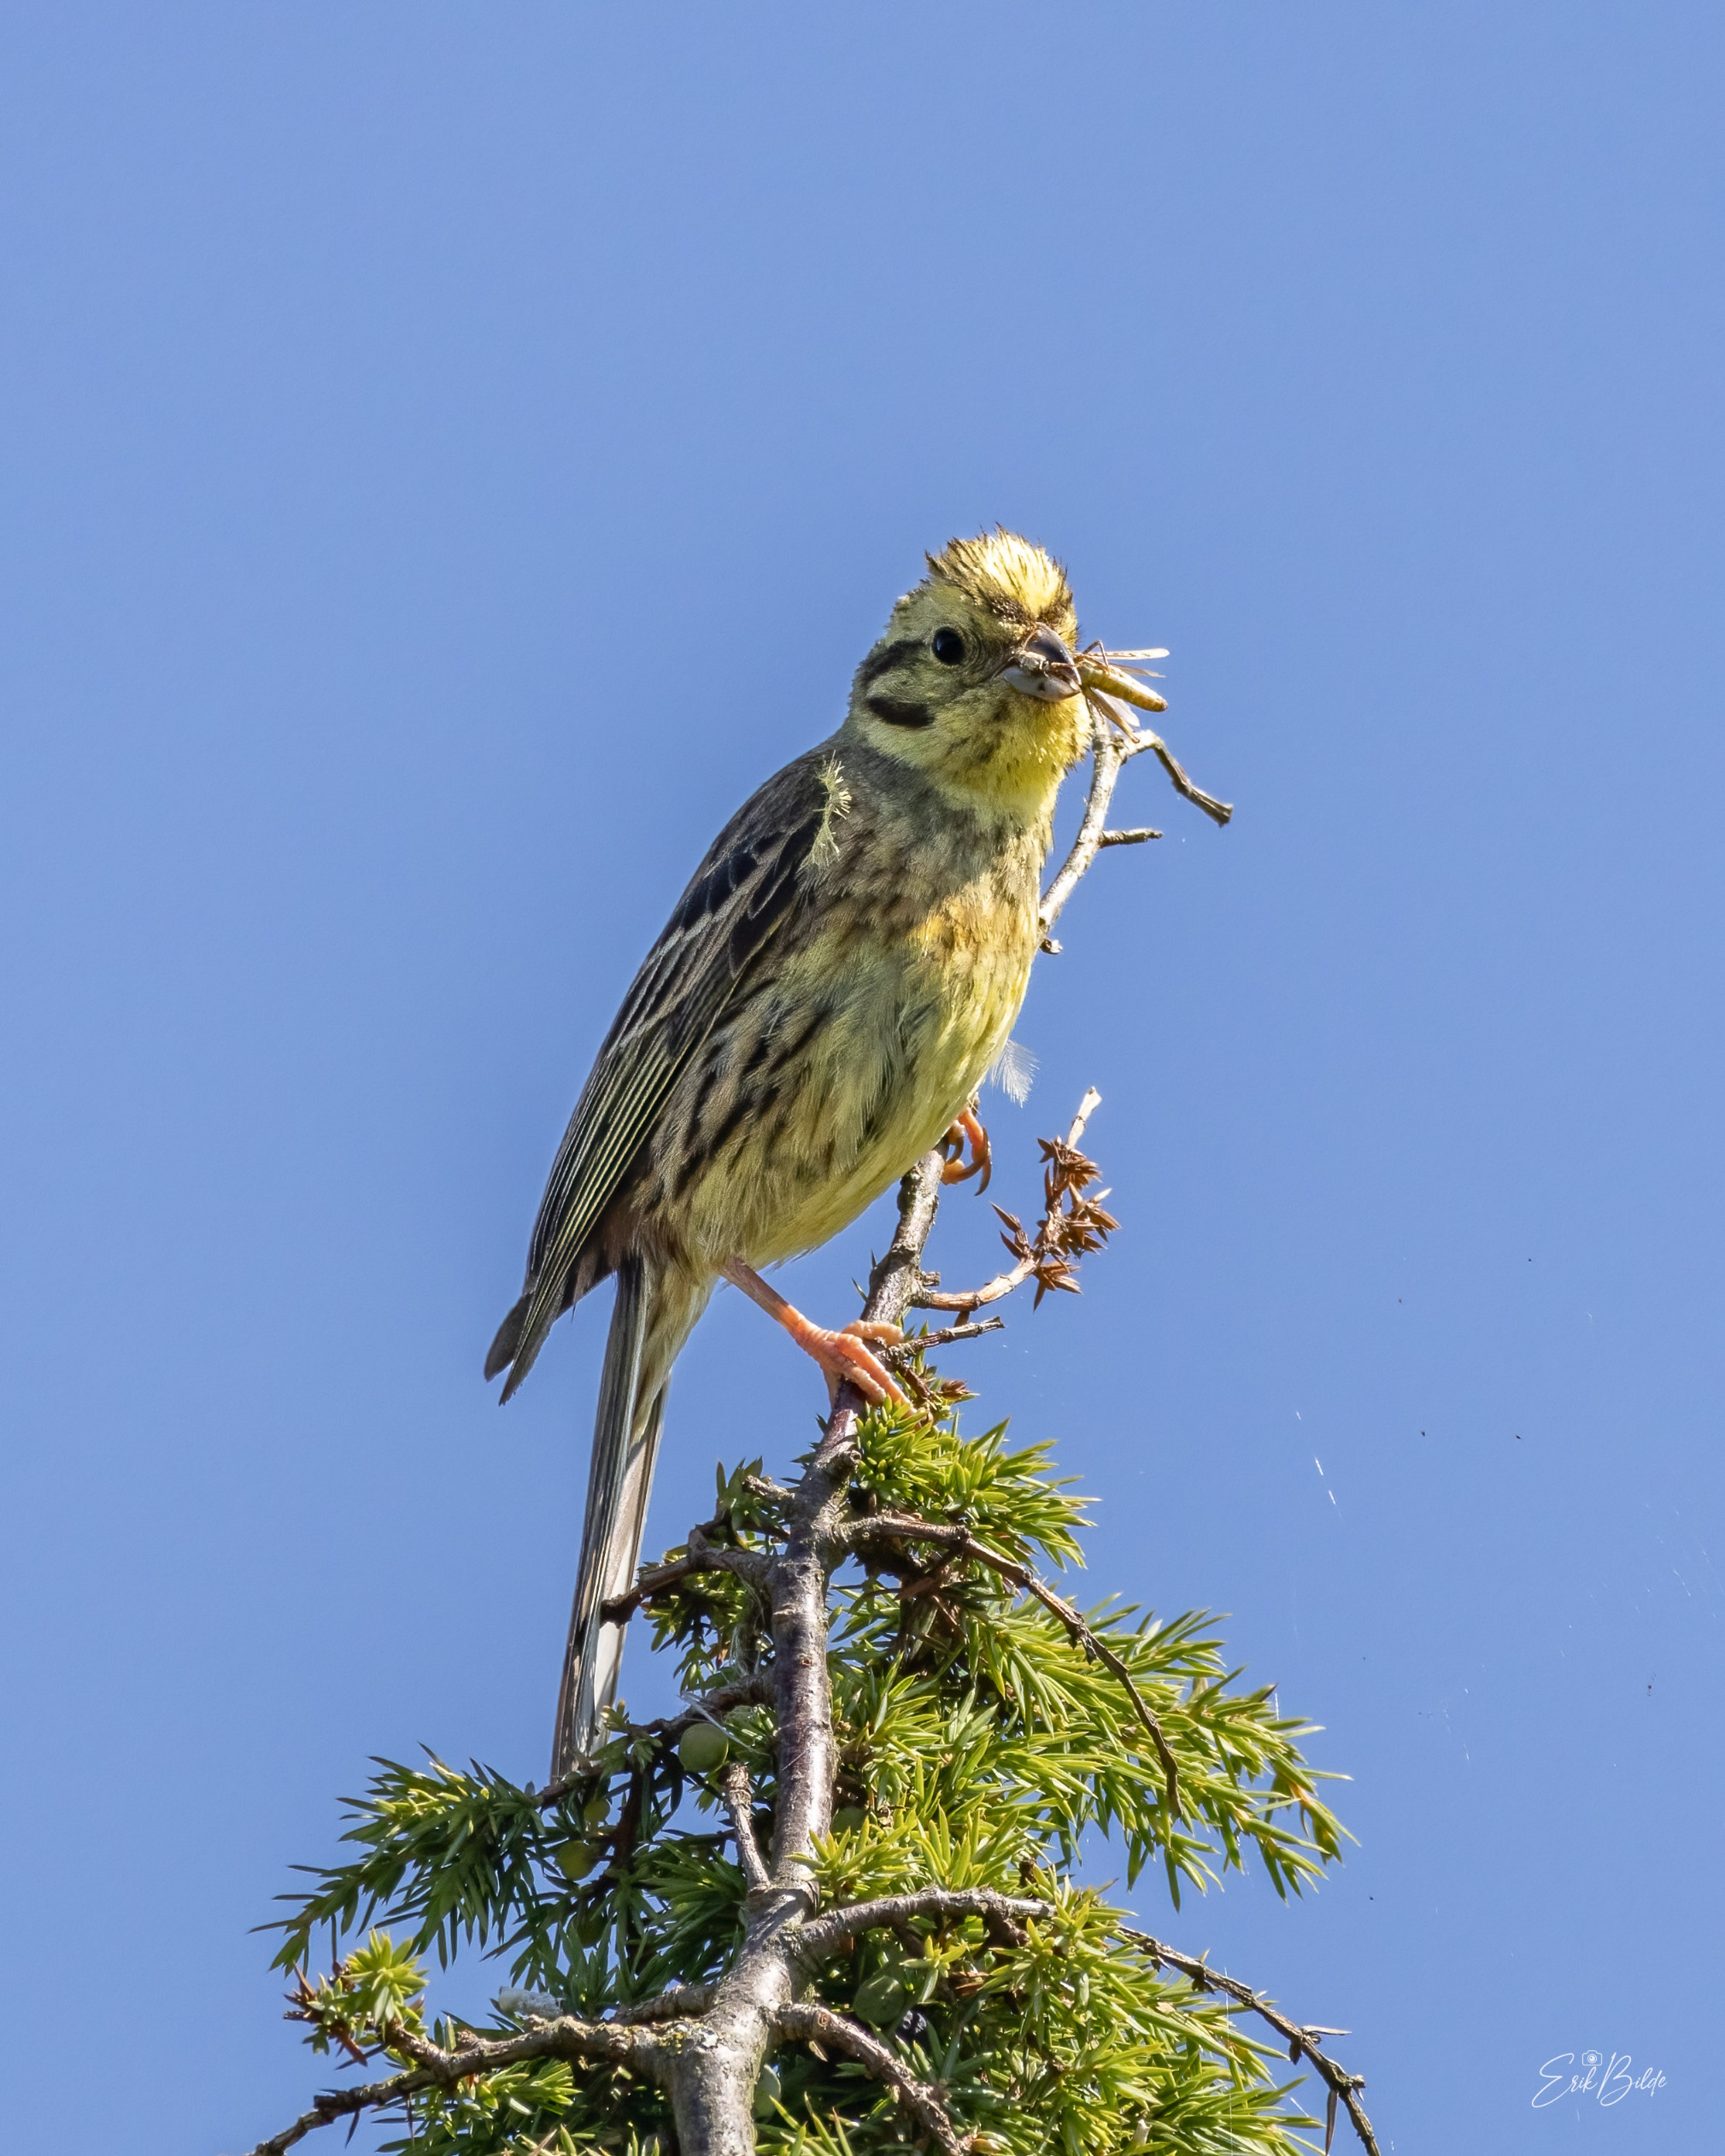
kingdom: Animalia
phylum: Chordata
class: Aves
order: Passeriformes
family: Emberizidae
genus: Emberiza
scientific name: Emberiza citrinella
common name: Gulspurv
